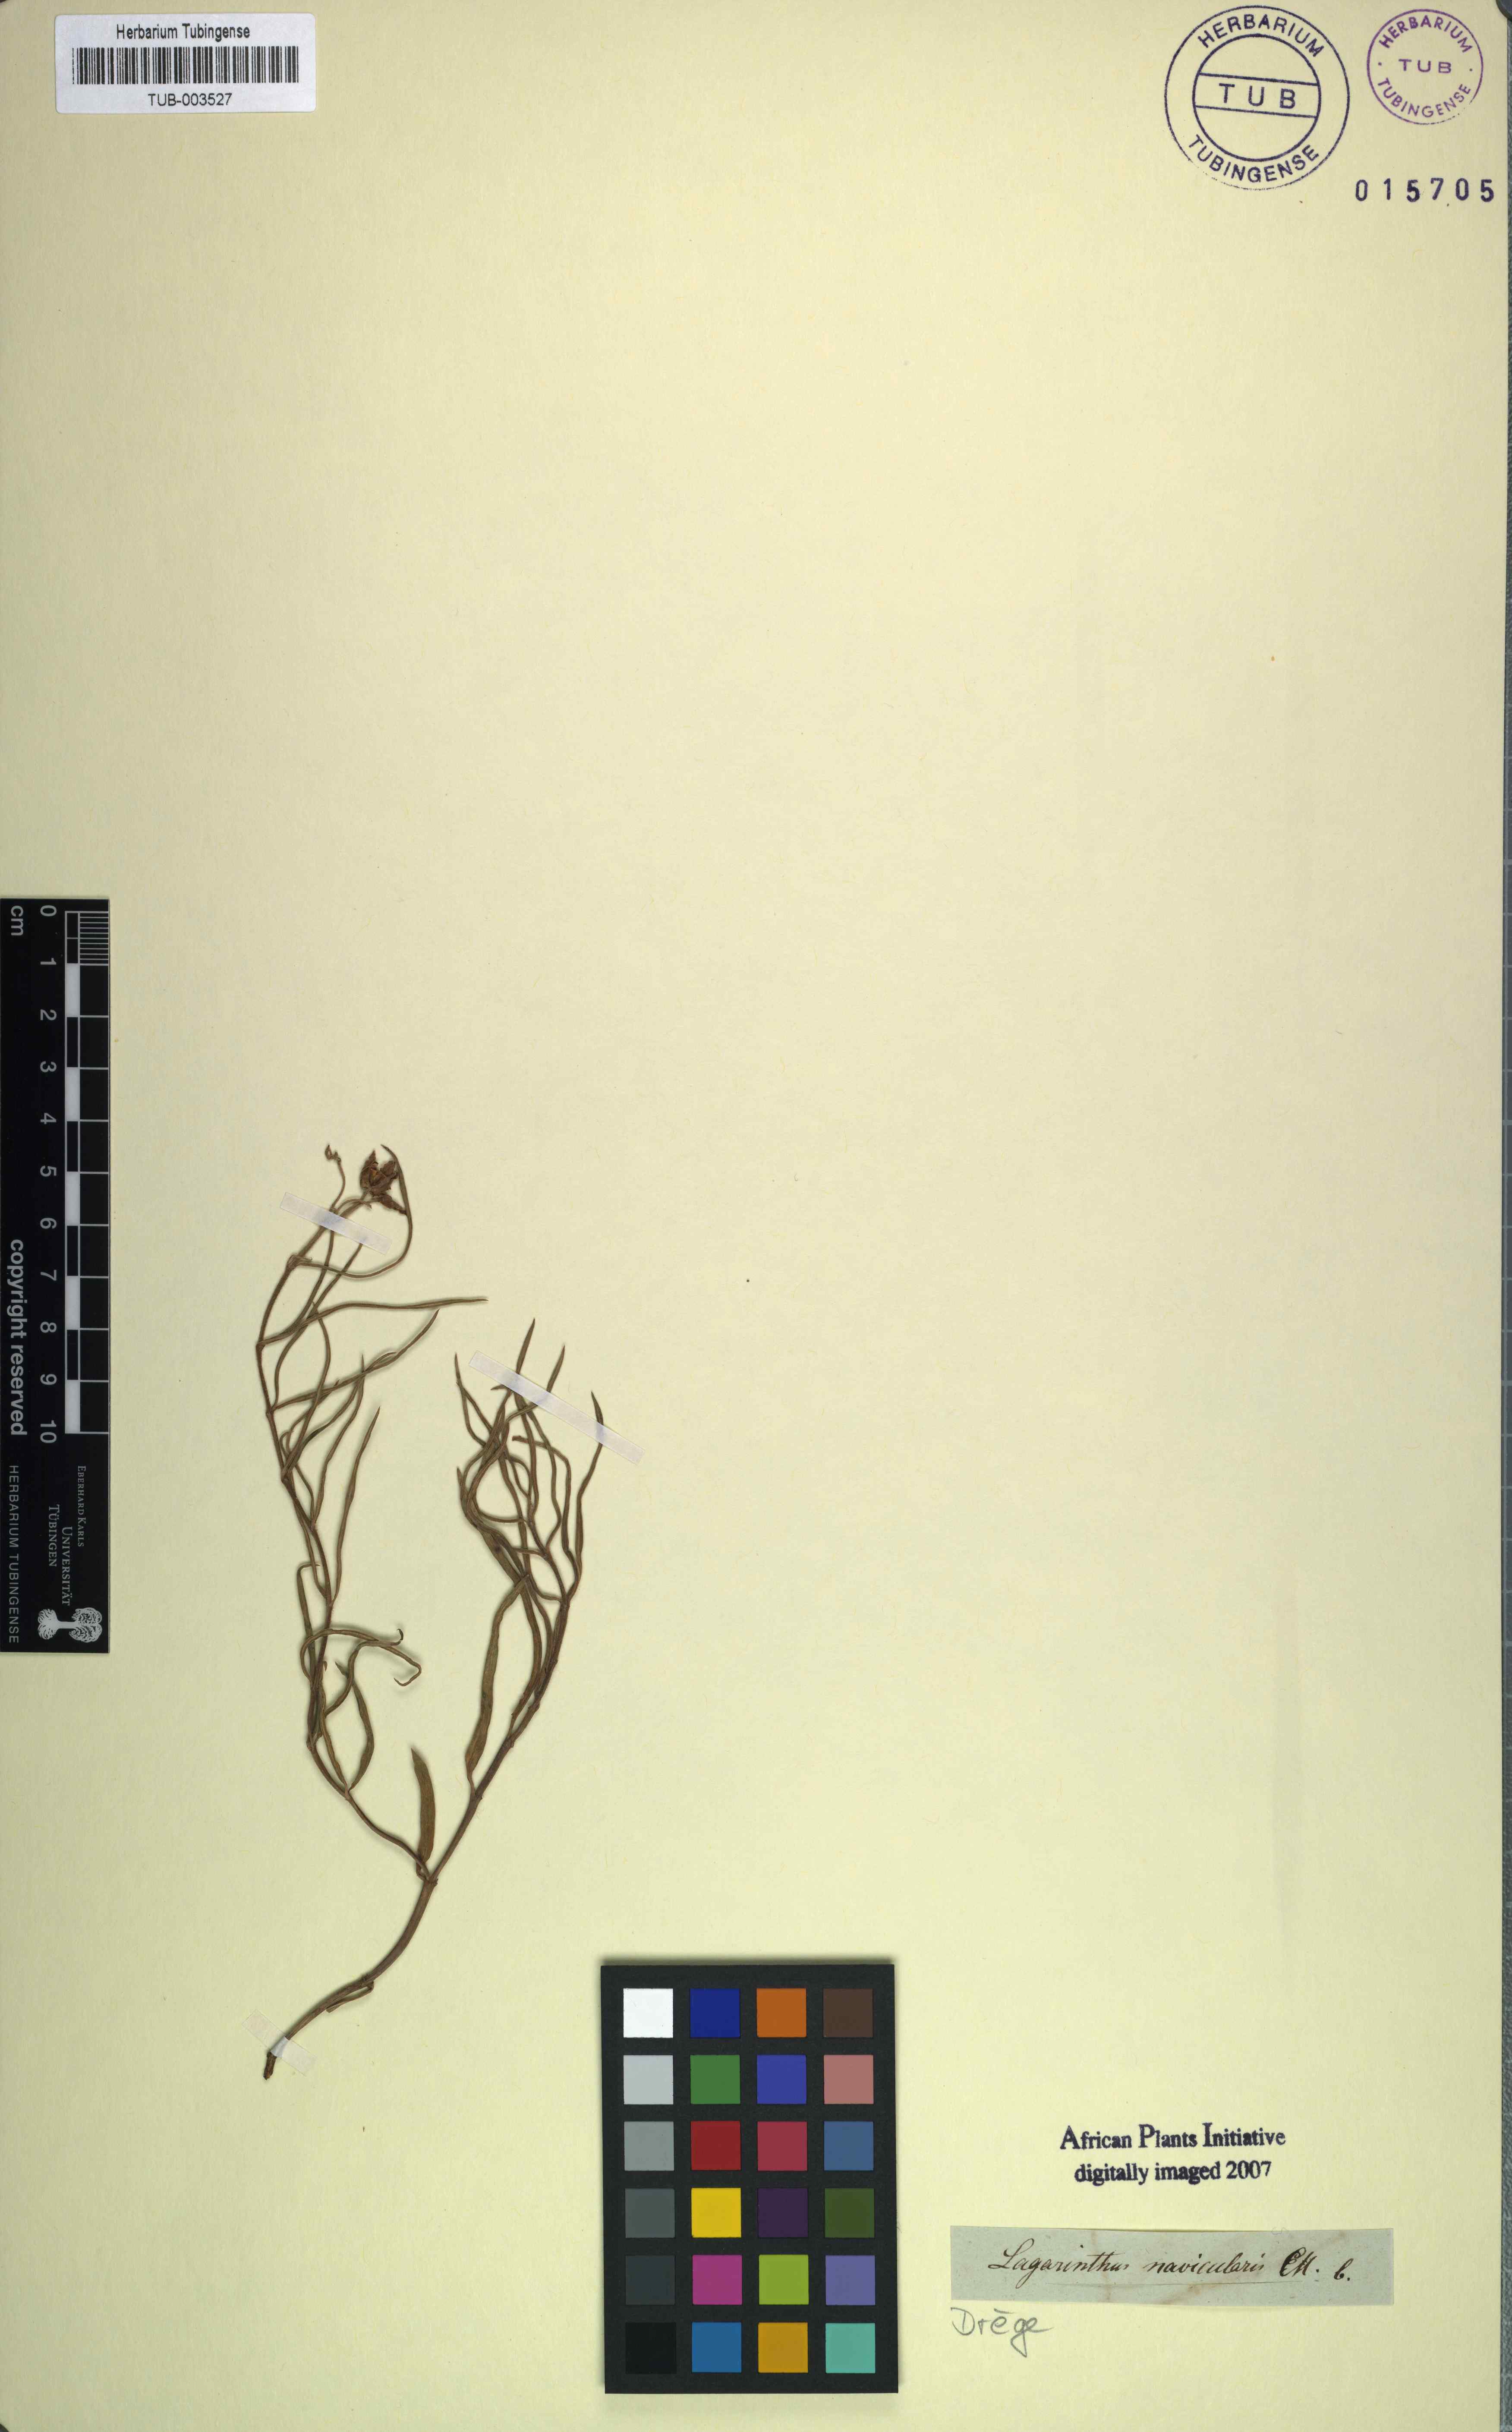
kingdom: Plantae
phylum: Tracheophyta
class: Magnoliopsida
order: Gentianales
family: Apocynaceae
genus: Asclepias
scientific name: Asclepias navicularis
